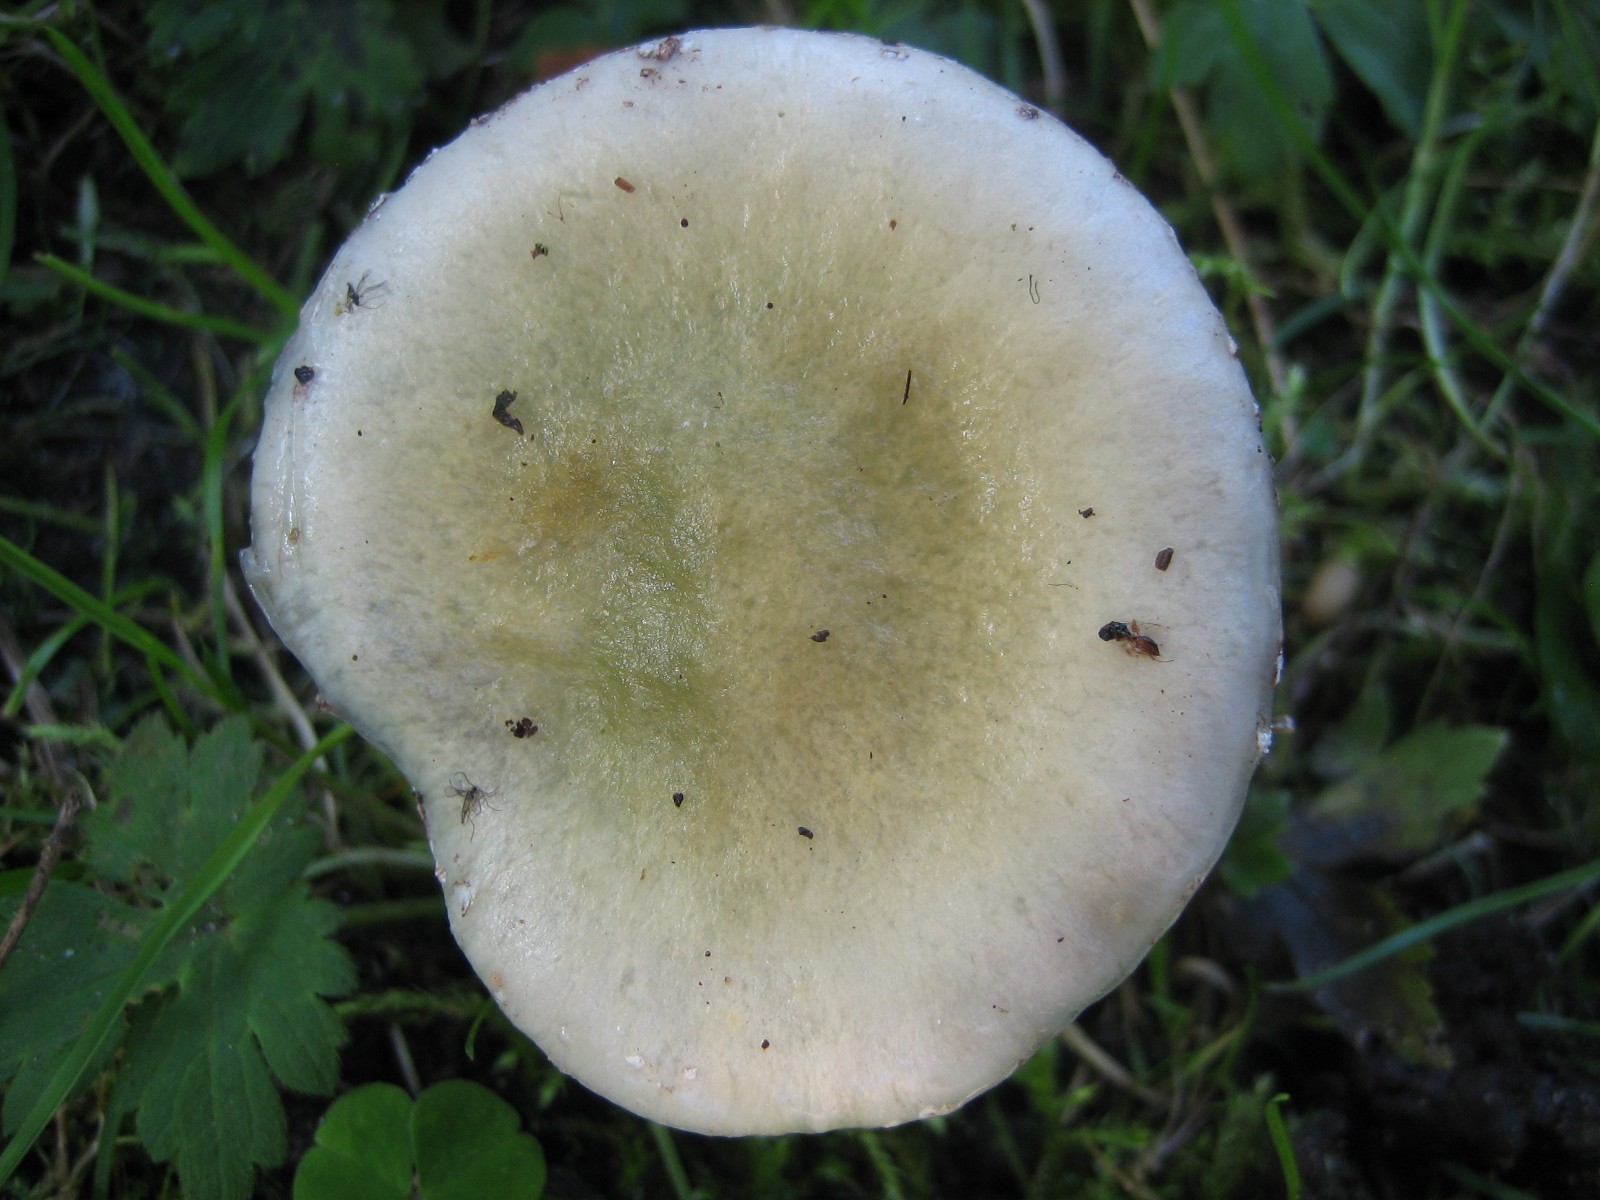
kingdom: Fungi
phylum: Basidiomycota
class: Agaricomycetes
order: Agaricales
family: Strophariaceae
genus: Stropharia
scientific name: Stropharia cyanea
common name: blågrøn bredblad
